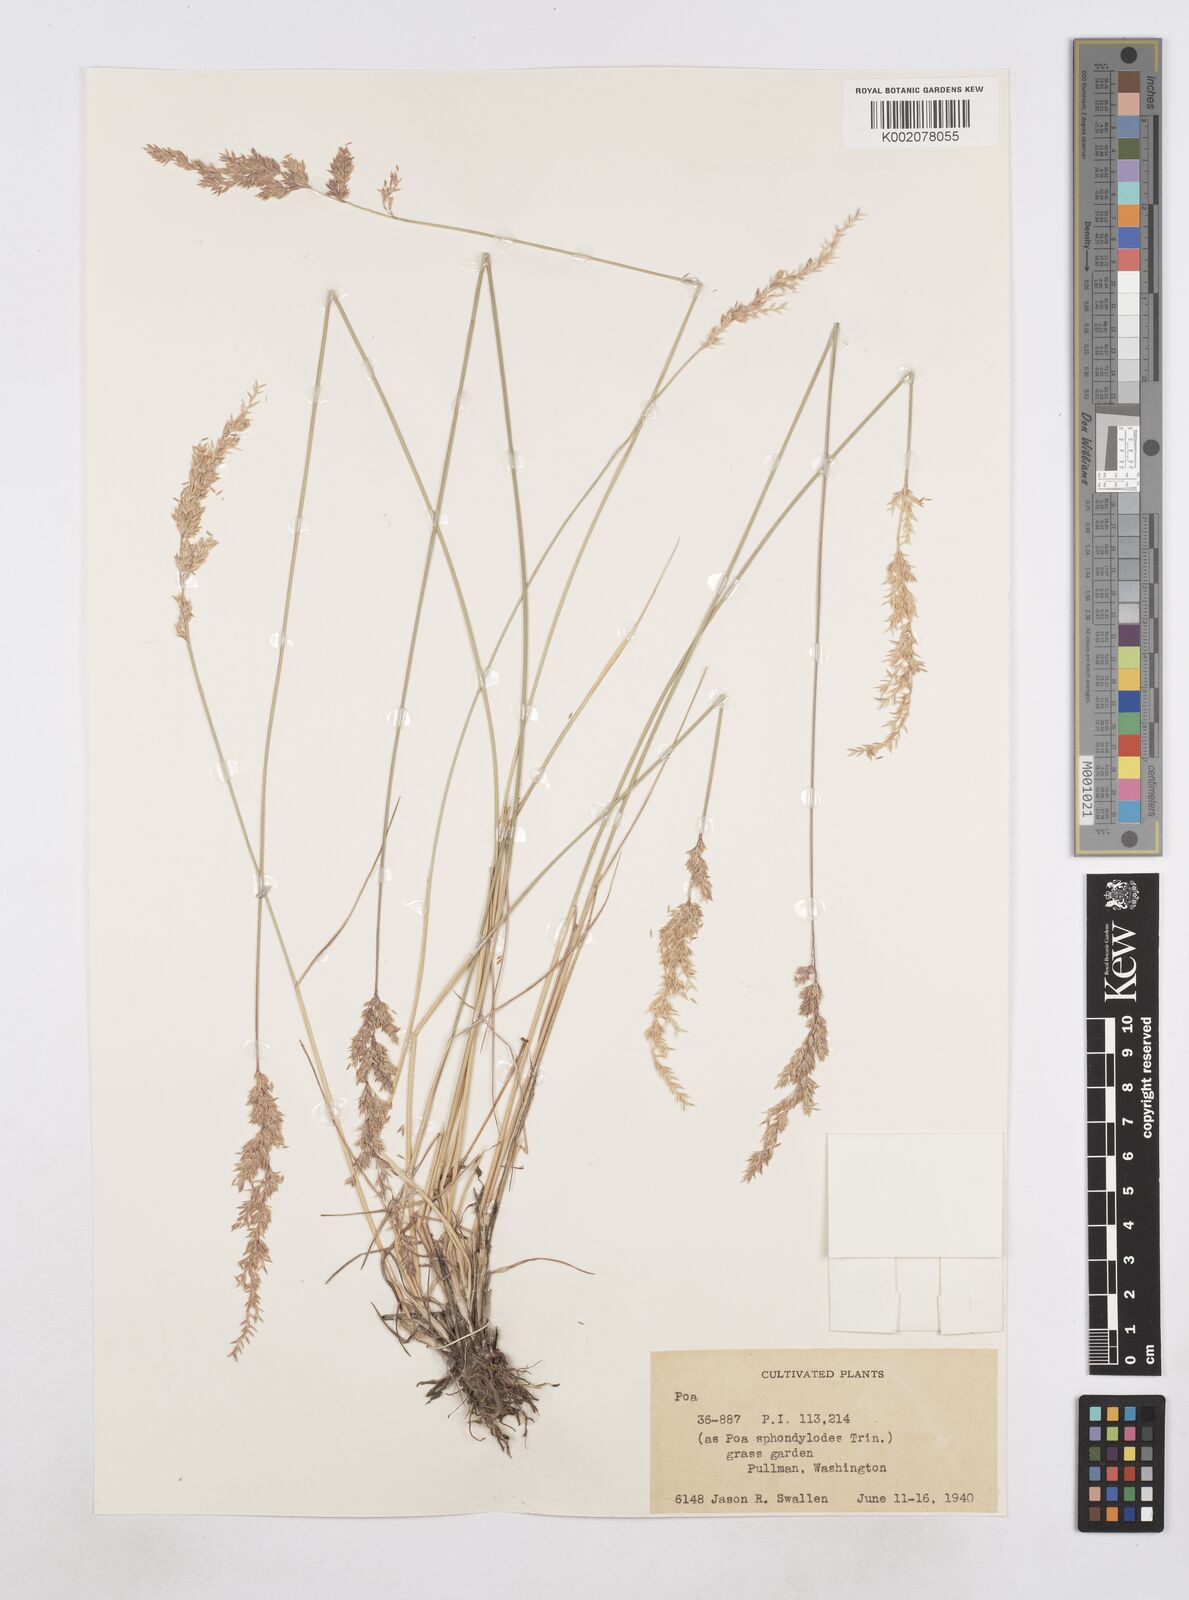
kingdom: Plantae
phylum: Tracheophyta
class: Liliopsida
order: Poales
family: Poaceae
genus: Poa
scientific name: Poa
